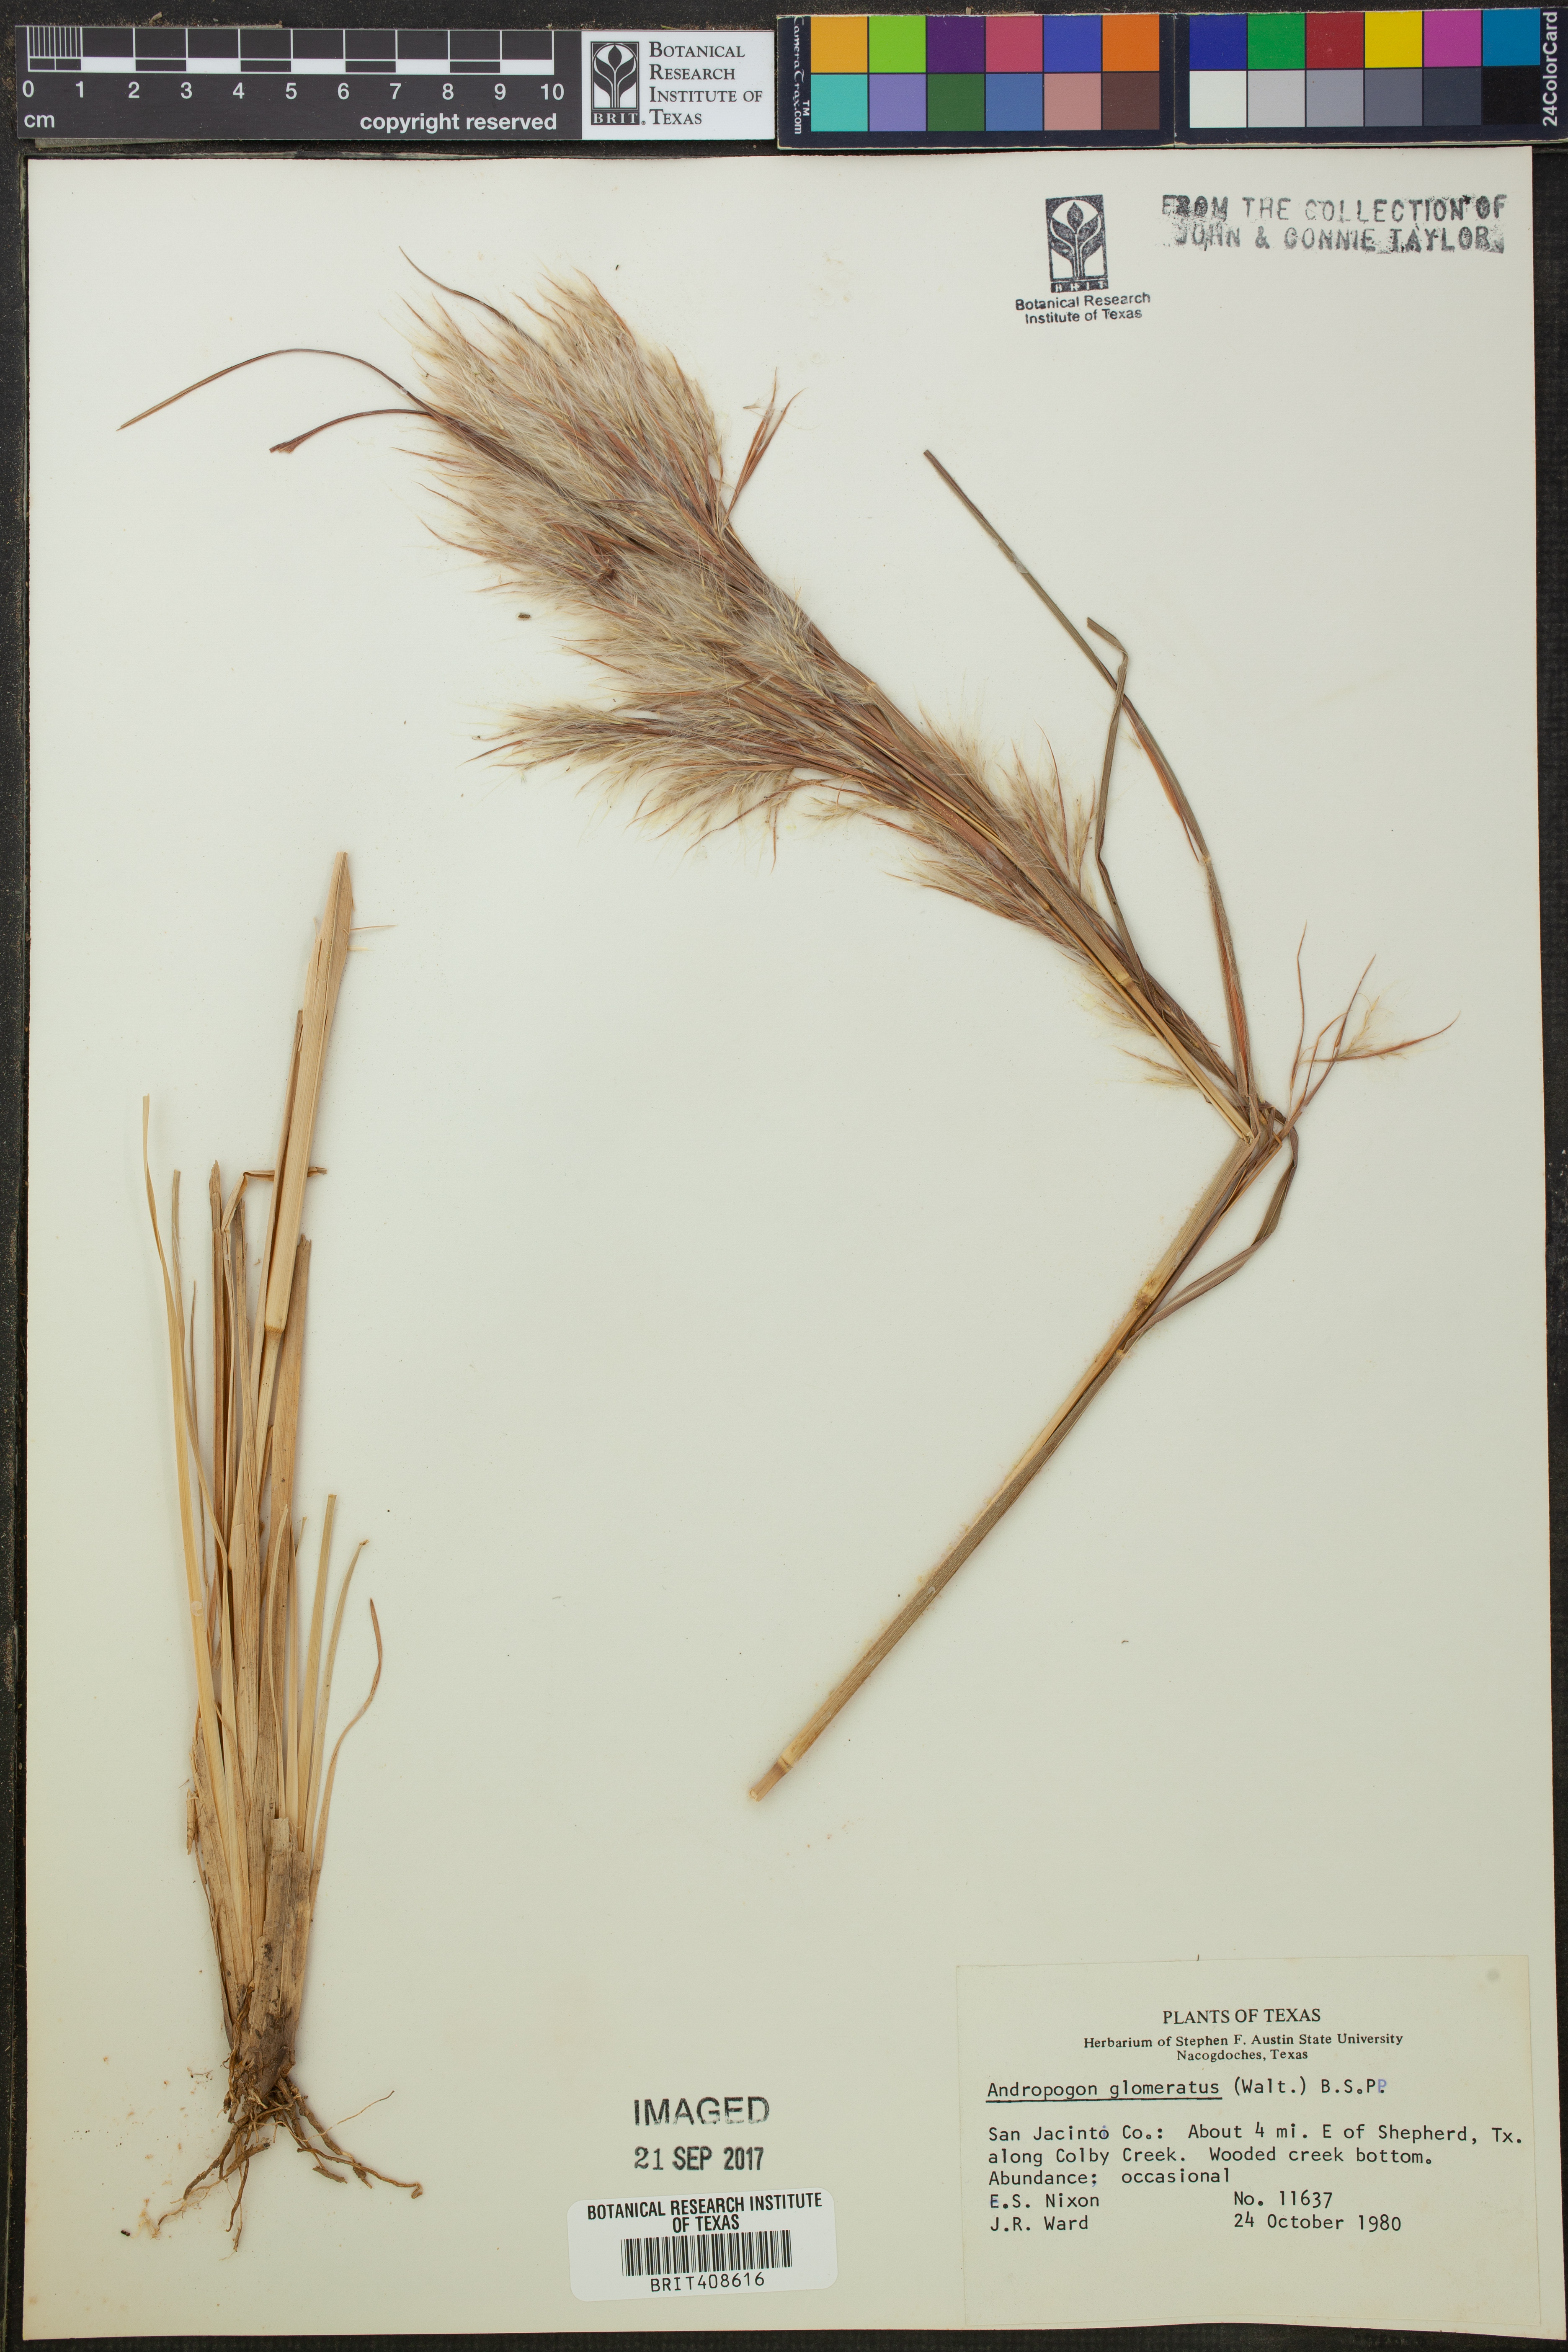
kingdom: Plantae
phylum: Tracheophyta
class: Liliopsida
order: Poales
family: Poaceae
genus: Andropogon
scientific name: Andropogon glomeratus
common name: Bushy beard grass
